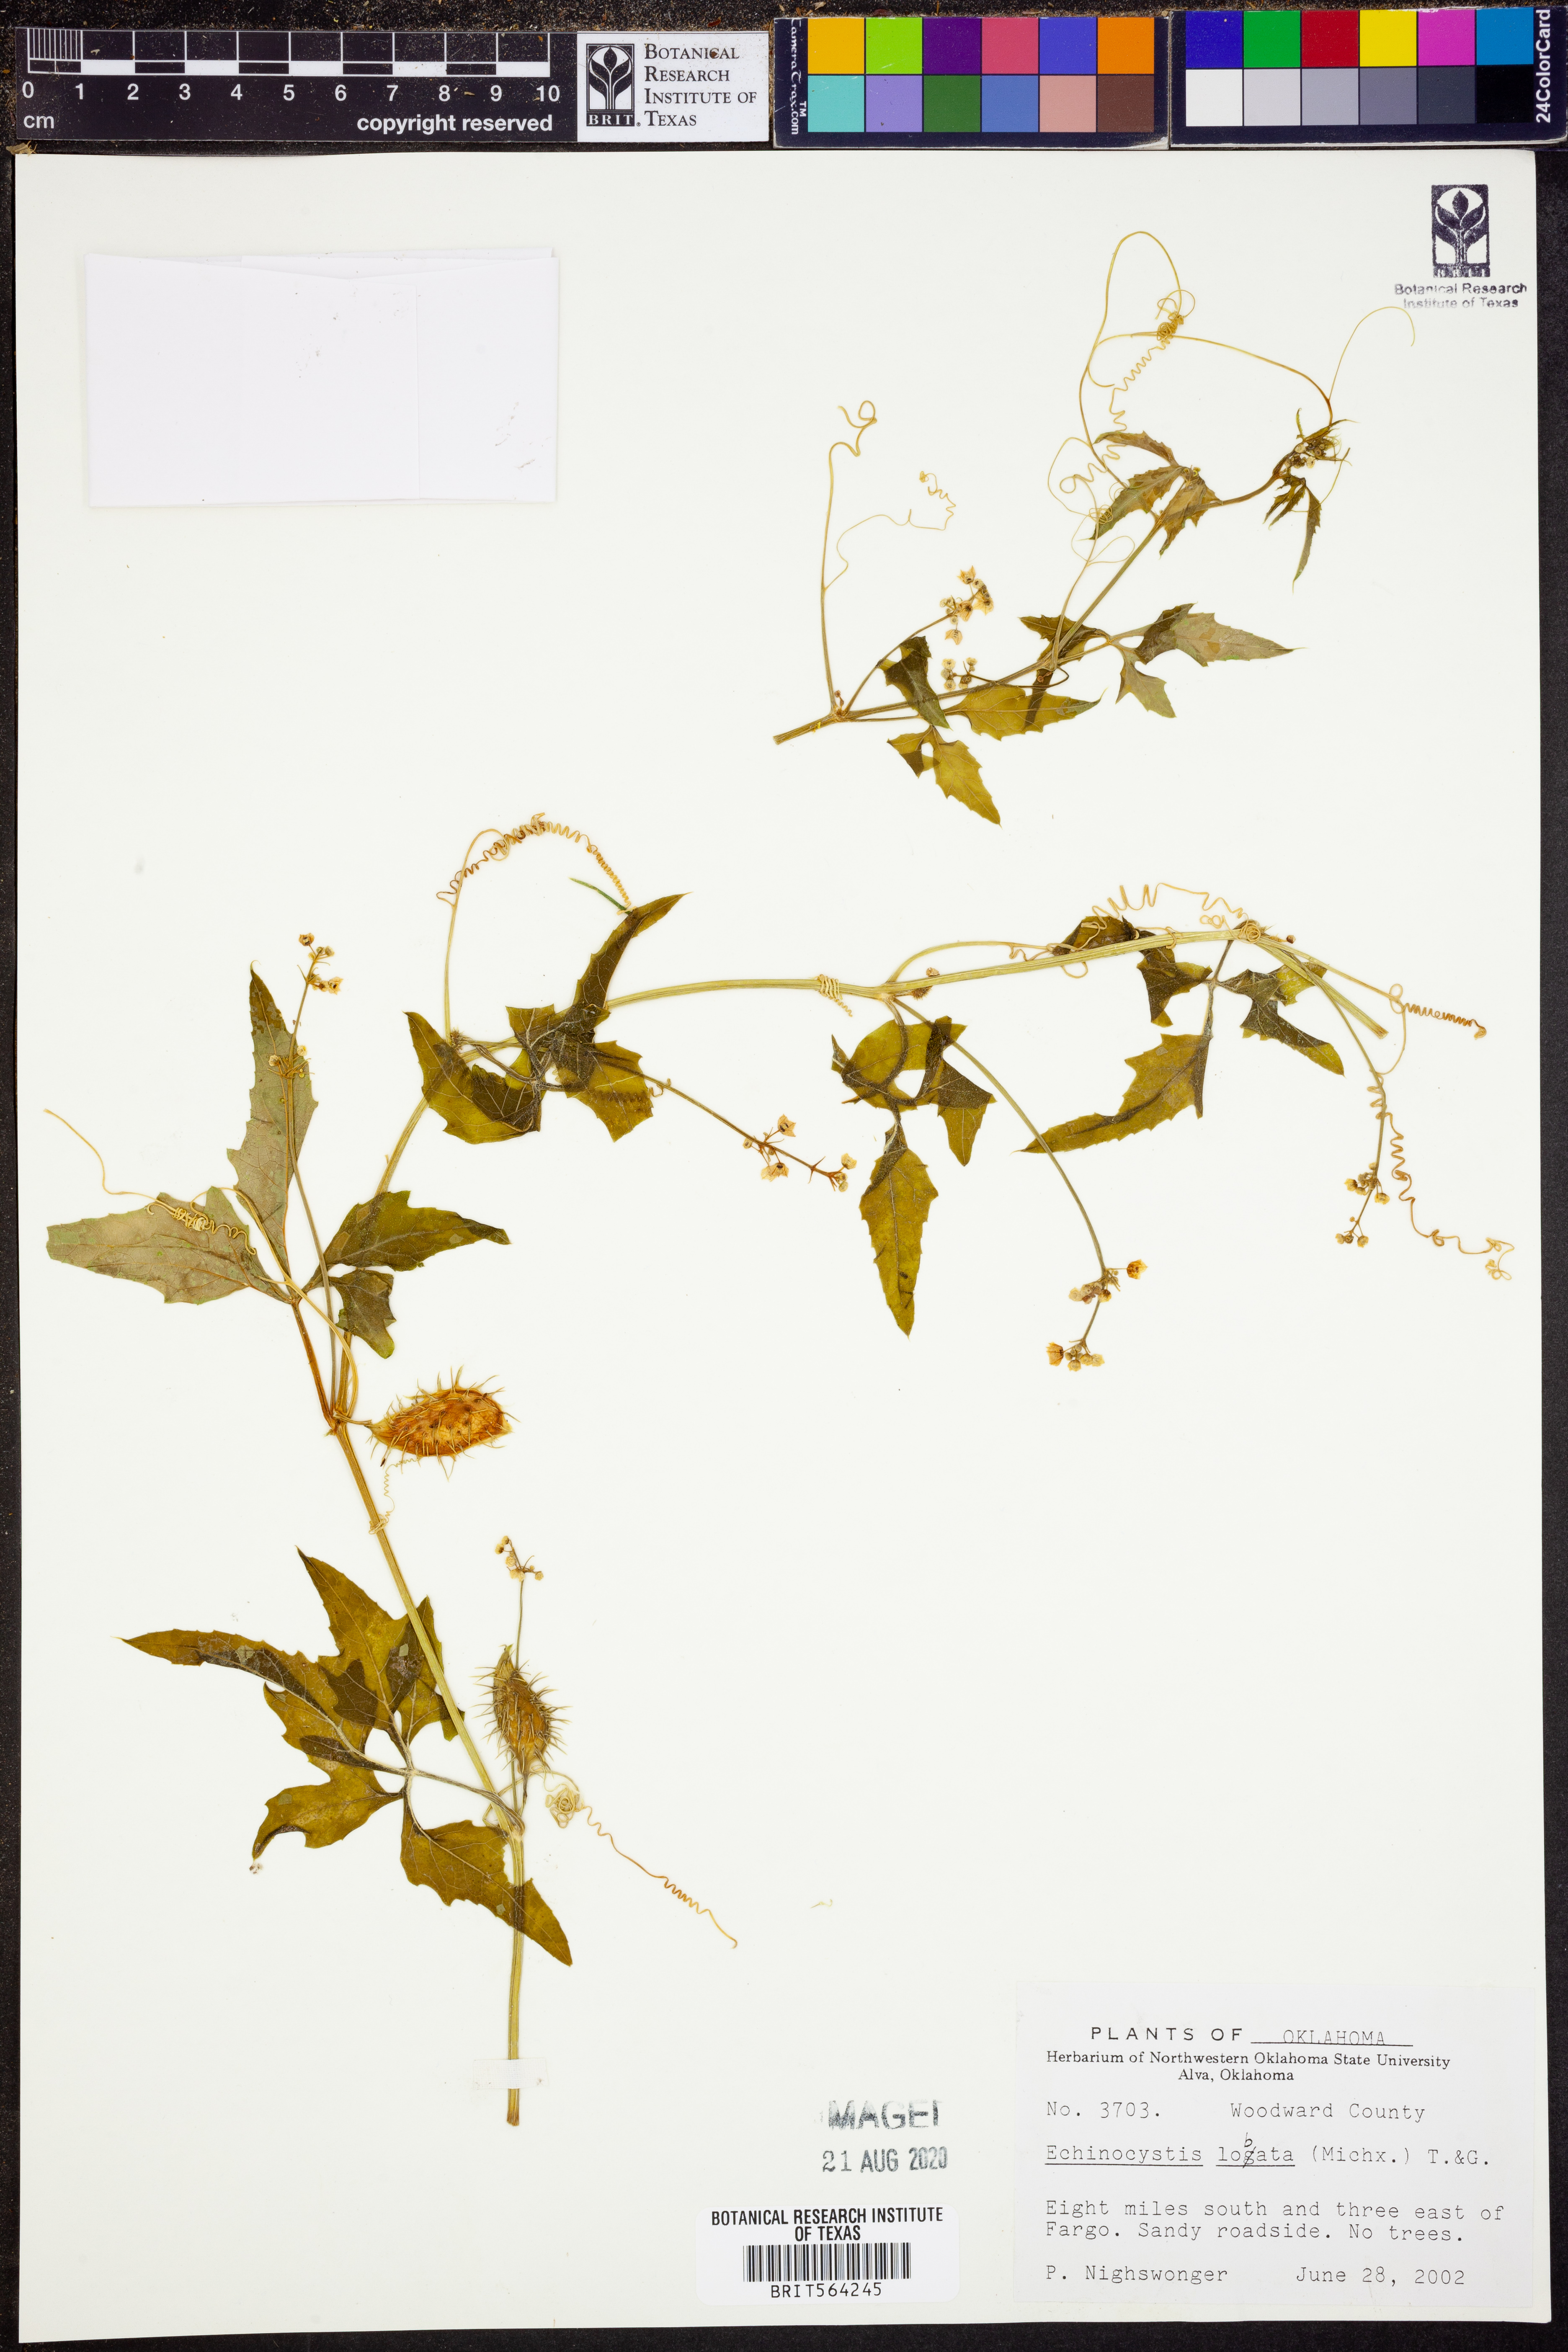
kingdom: Plantae
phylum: Tracheophyta
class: Magnoliopsida
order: Cucurbitales
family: Cucurbitaceae
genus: Echinocystis
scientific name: Echinocystis lobata
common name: Wild cucumber
